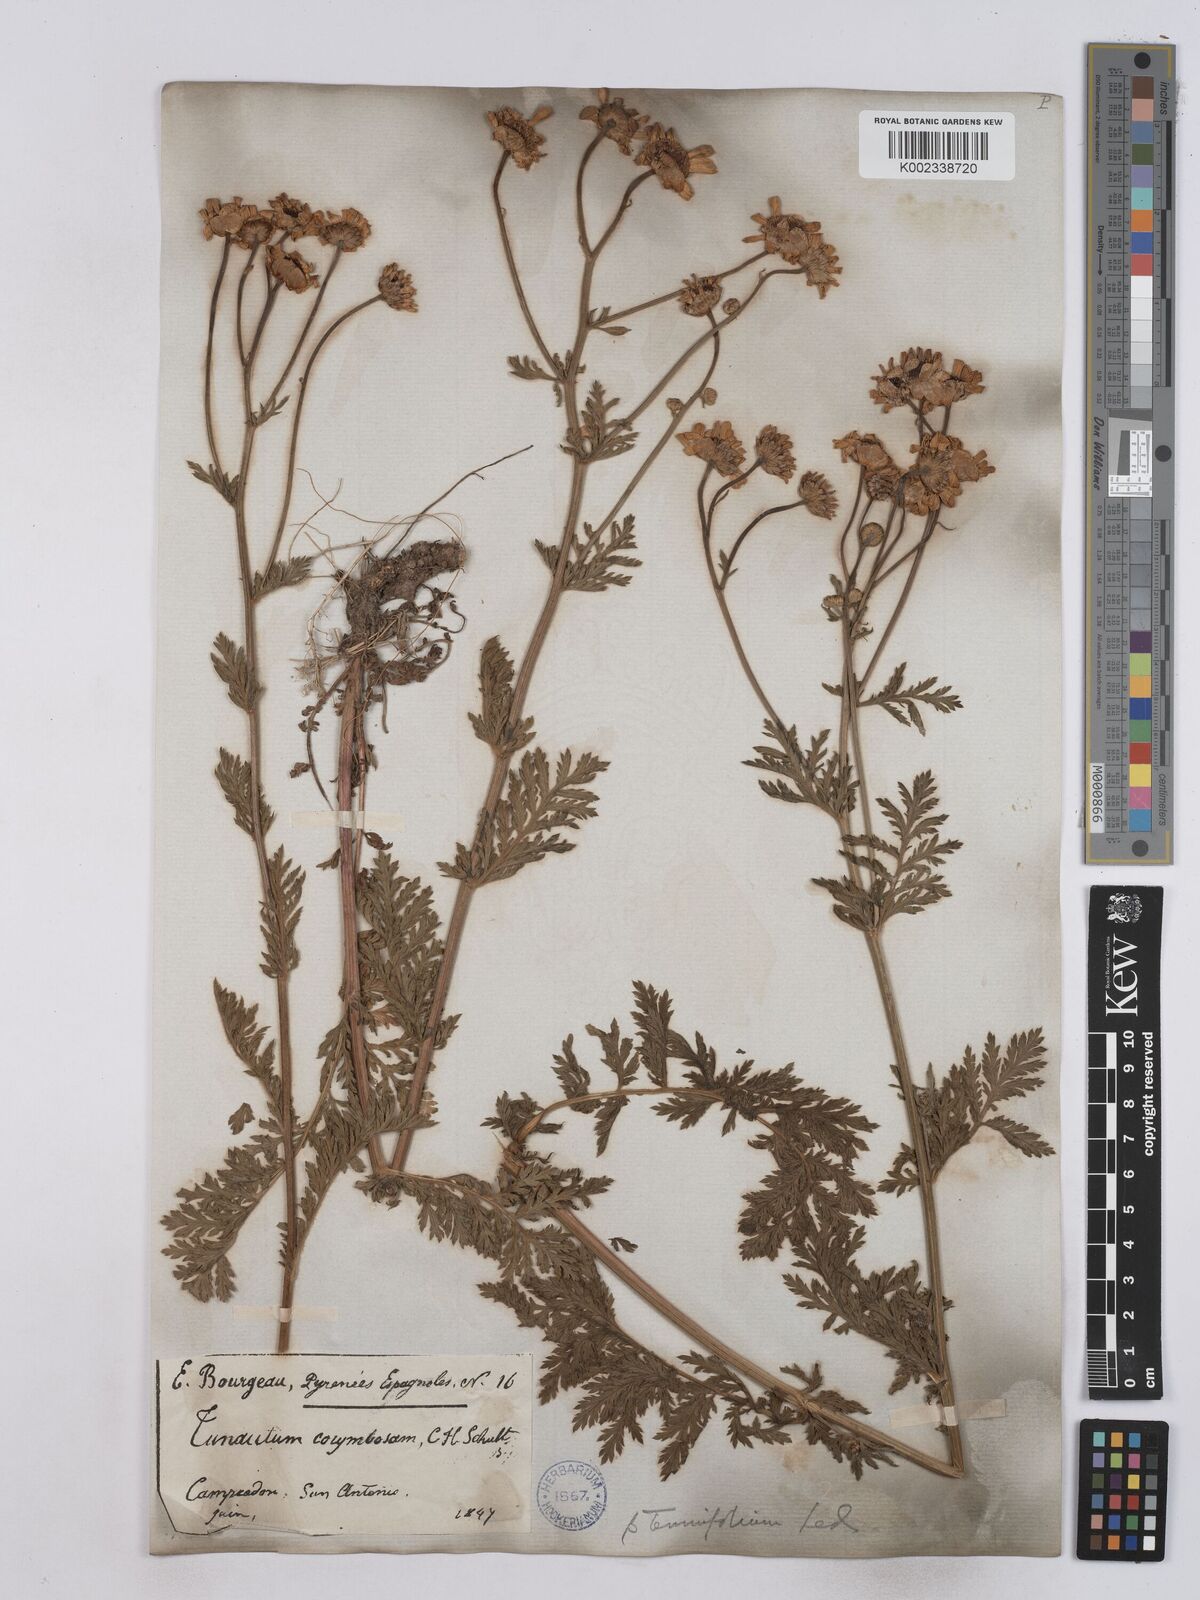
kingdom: Plantae
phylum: Tracheophyta
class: Magnoliopsida
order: Asterales
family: Asteraceae
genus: Tanacetum
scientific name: Tanacetum corymbosum
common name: Scentless feverfew
